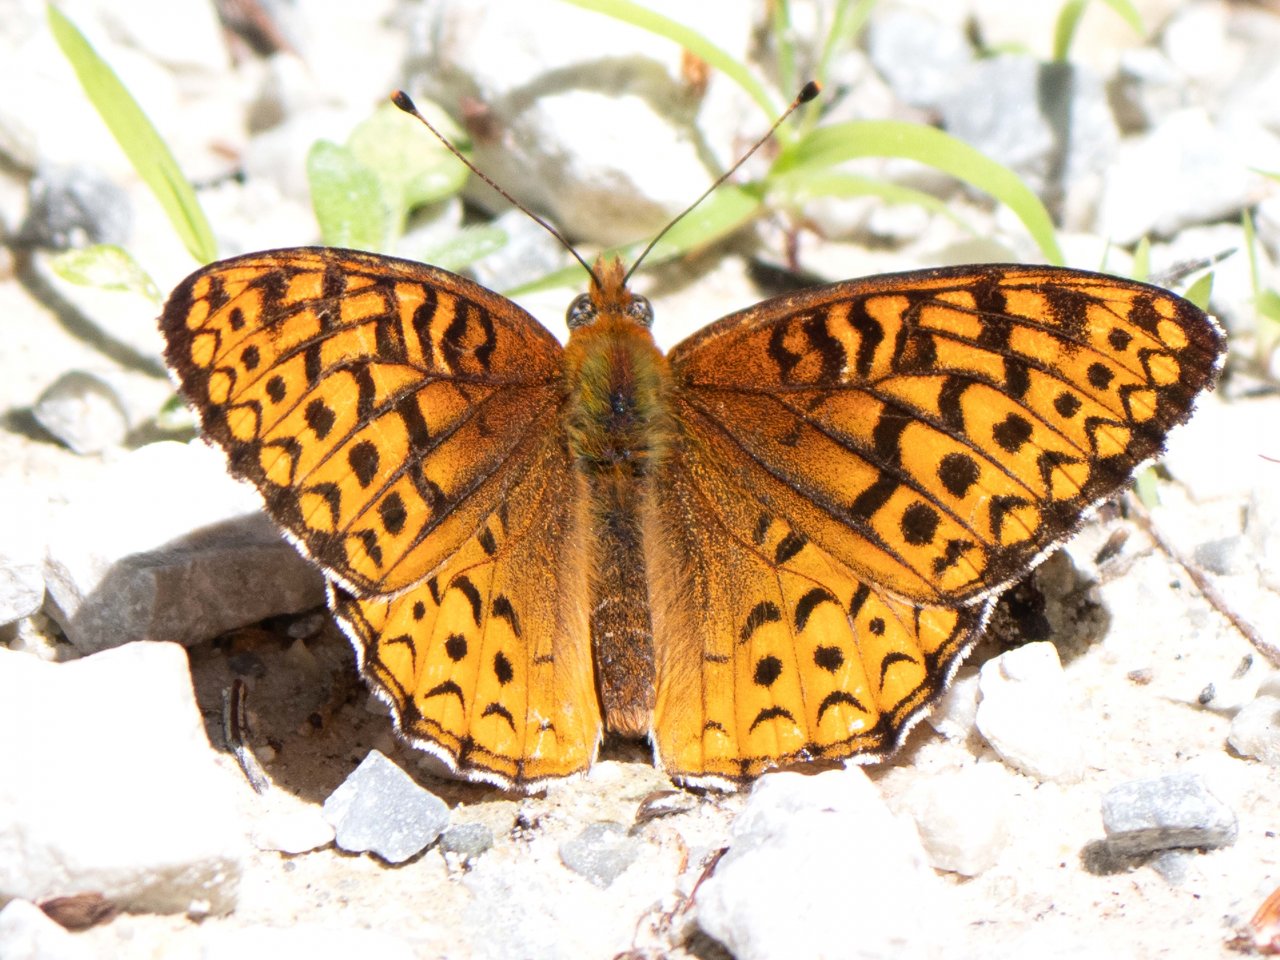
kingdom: Animalia
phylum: Arthropoda
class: Insecta
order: Lepidoptera
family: Nymphalidae
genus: Speyeria
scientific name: Speyeria aphrodite
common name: Aphrodite Fritillary
